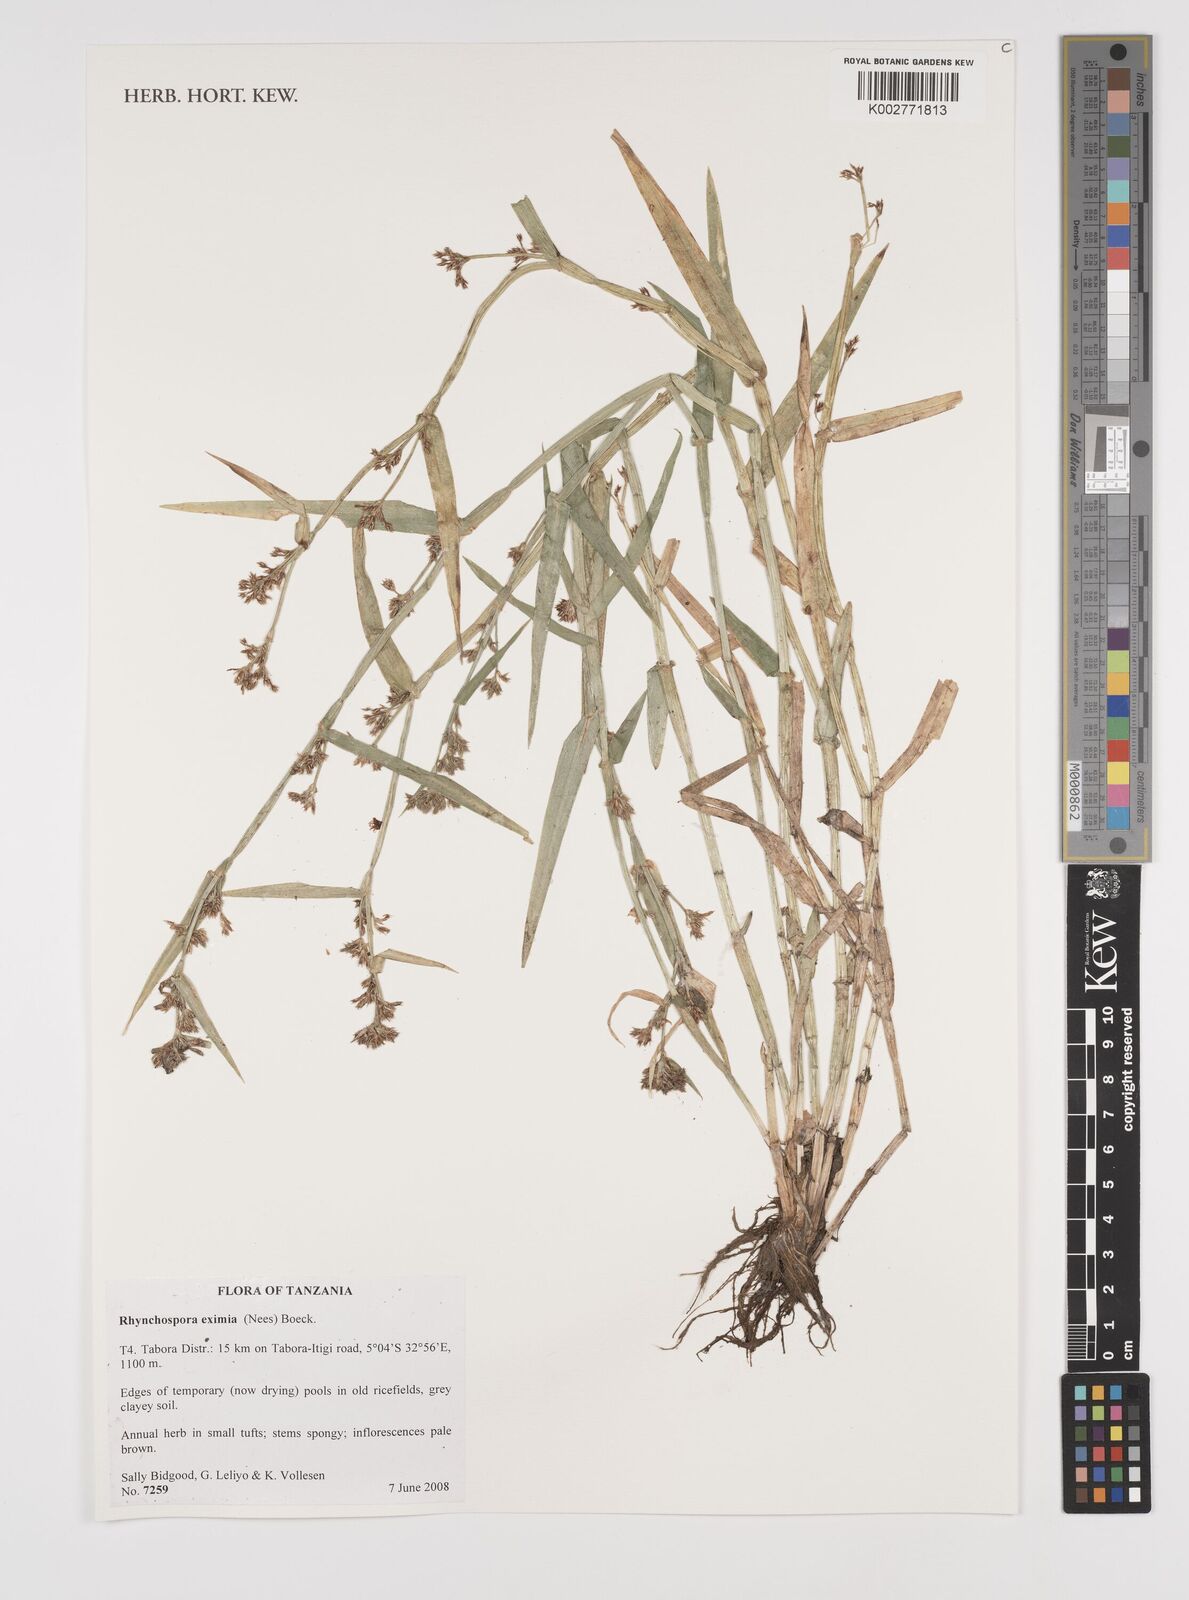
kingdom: Plantae
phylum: Tracheophyta
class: Liliopsida
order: Poales
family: Cyperaceae
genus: Rhynchospora
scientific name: Rhynchospora eximia
